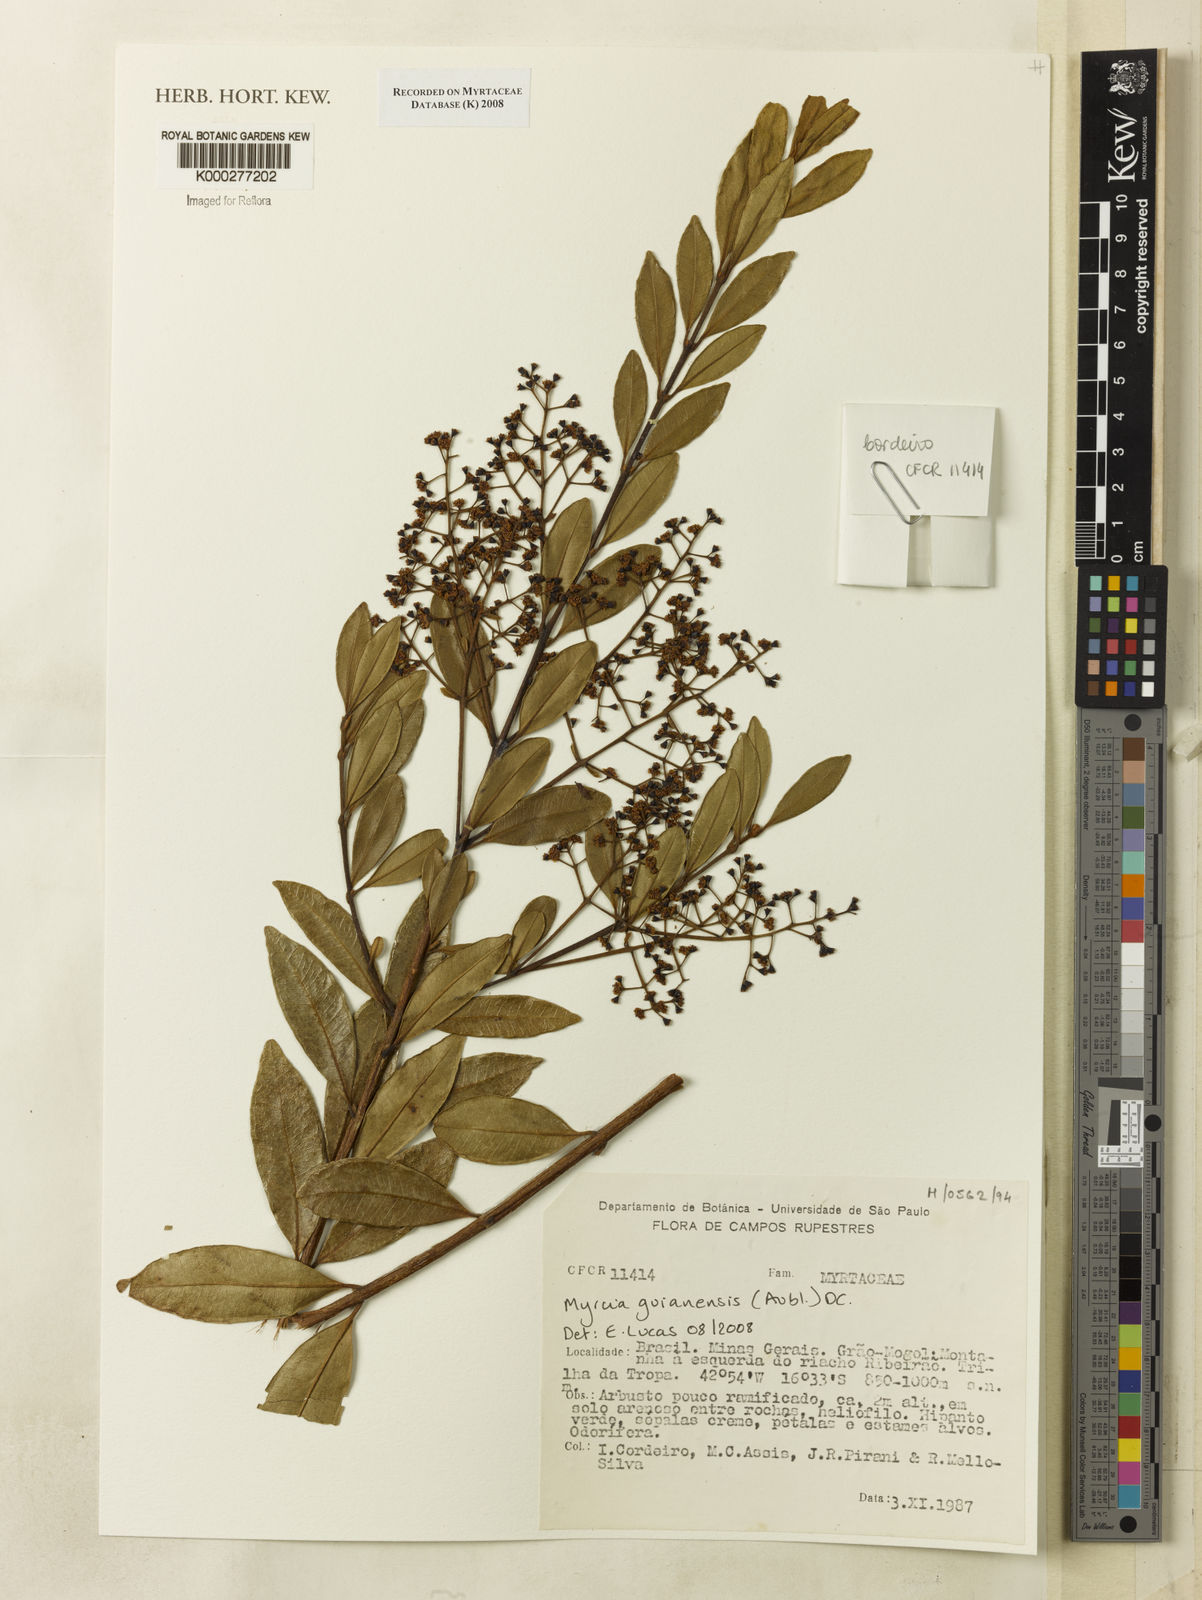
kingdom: Plantae
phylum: Tracheophyta
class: Magnoliopsida
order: Myrtales
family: Myrtaceae
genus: Myrcia
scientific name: Myrcia guianensis
